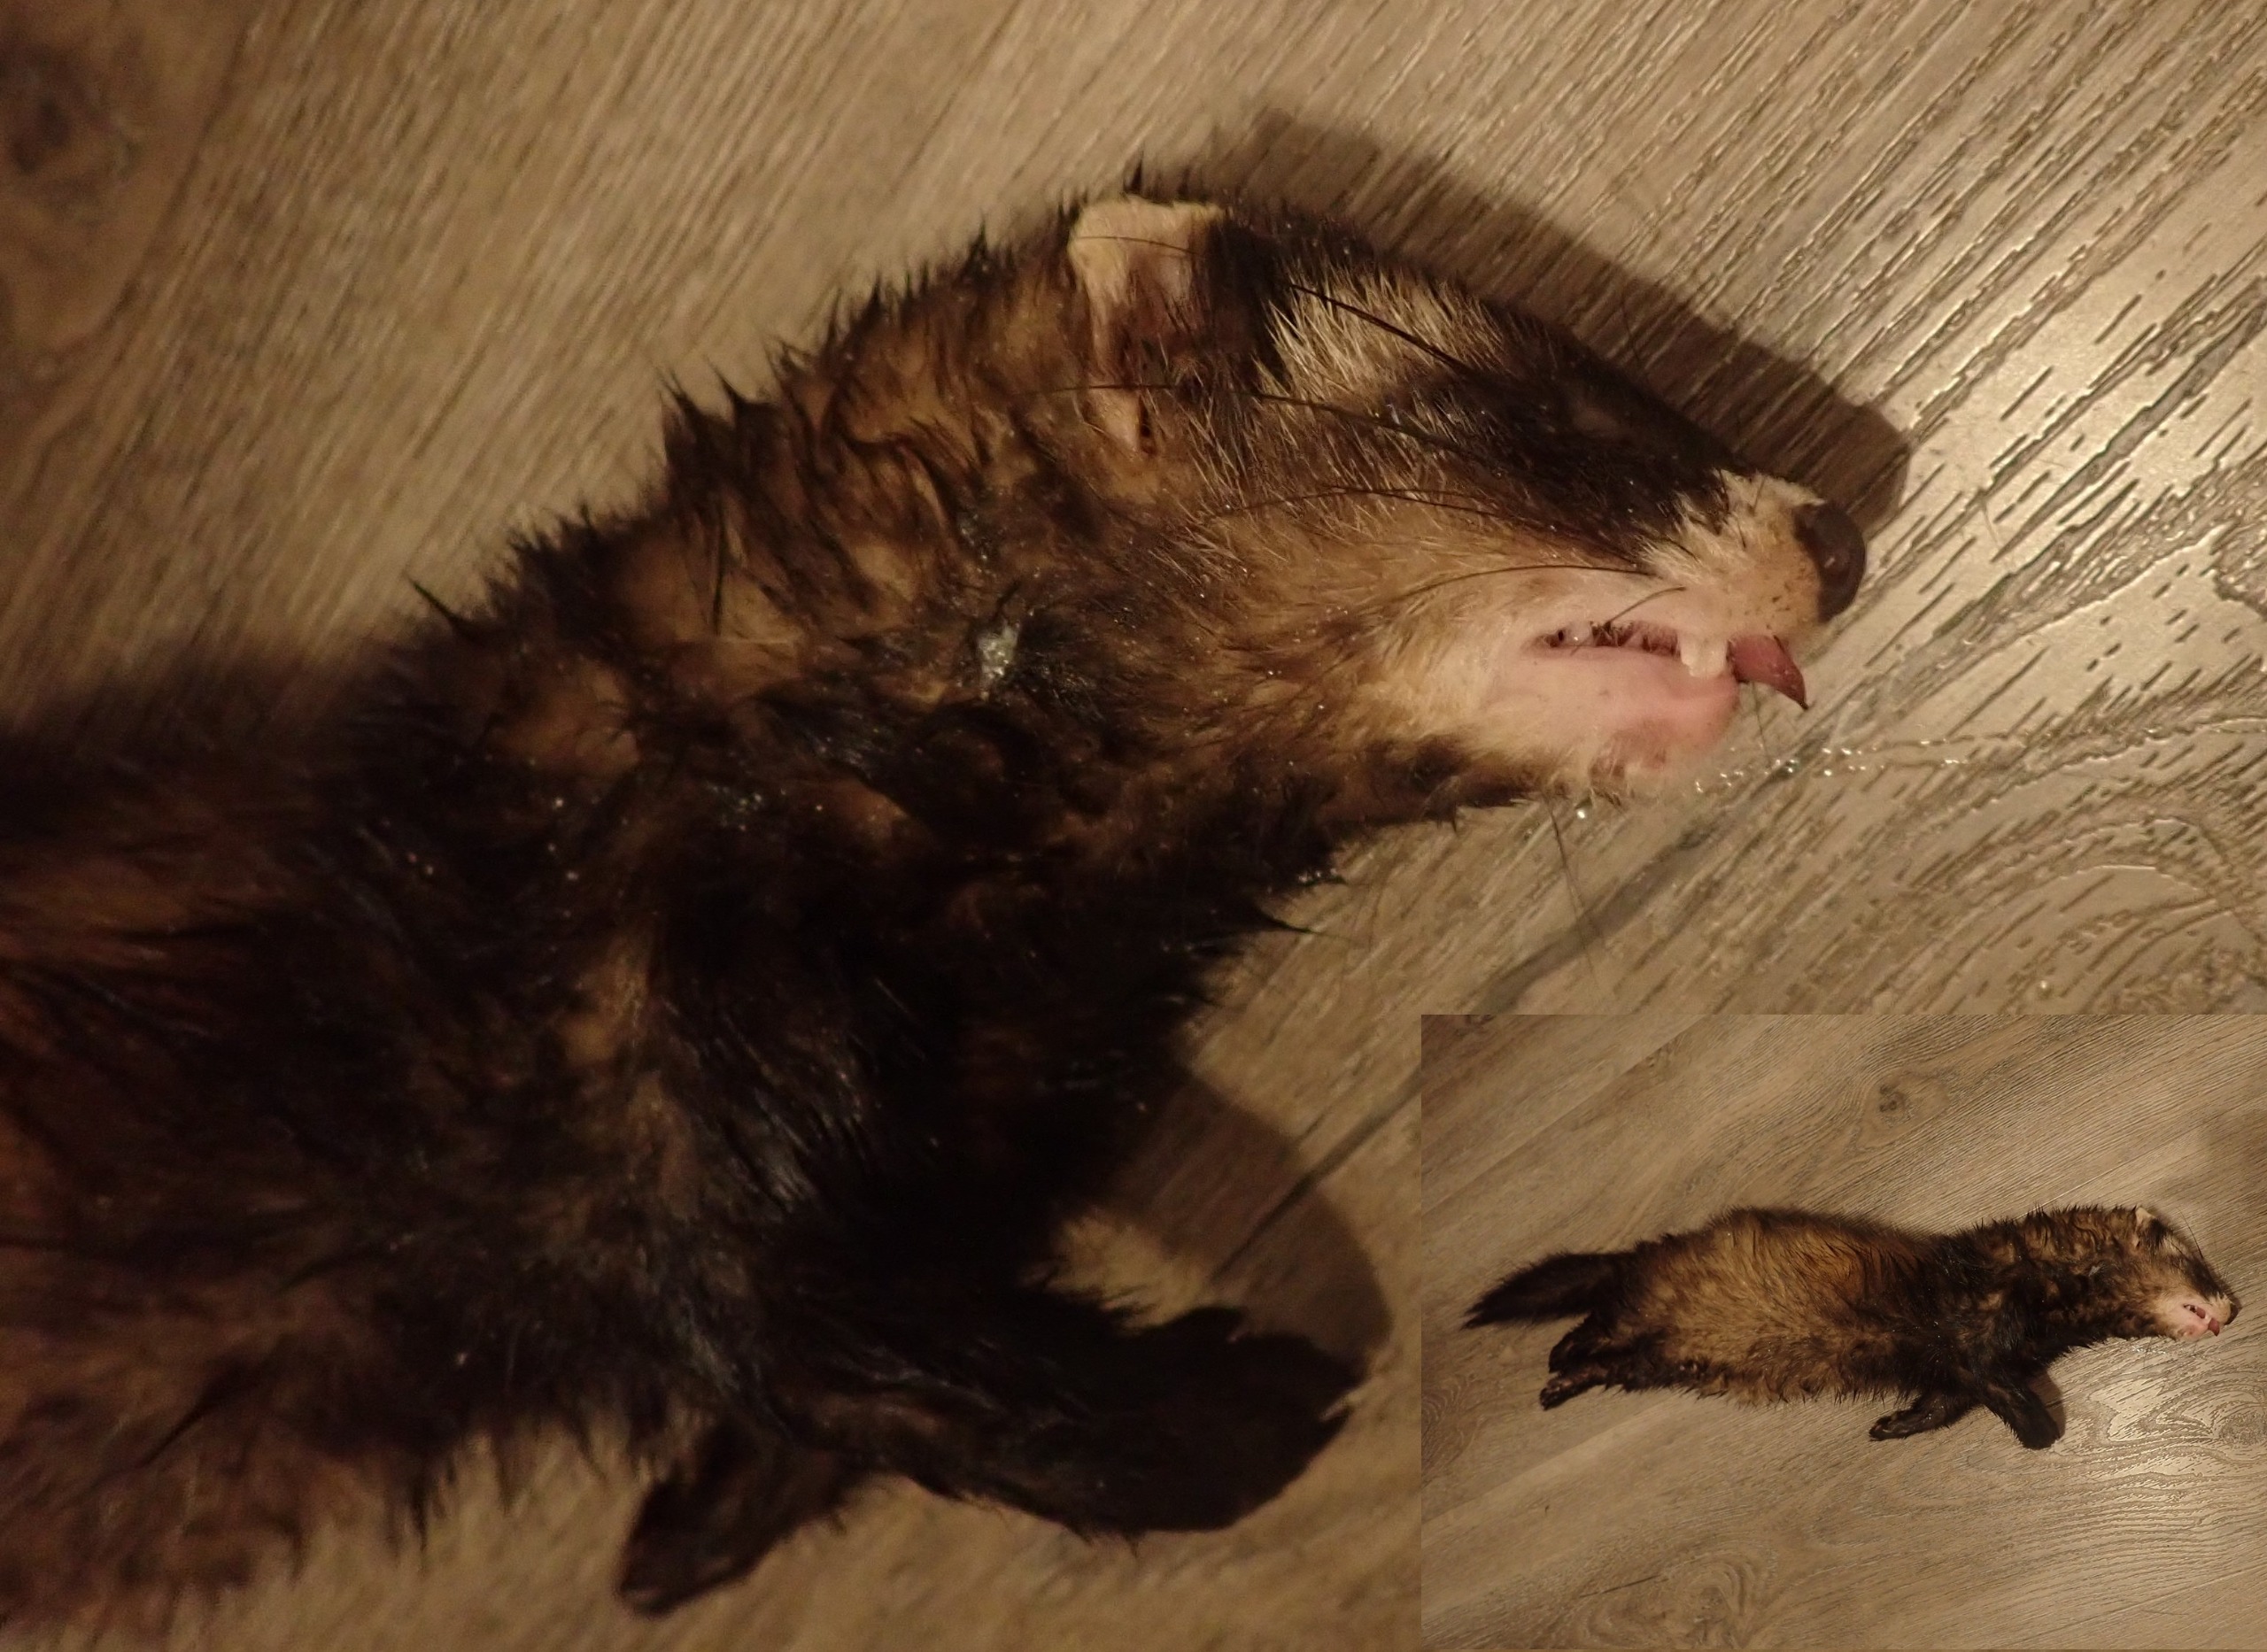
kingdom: Animalia
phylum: Chordata
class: Mammalia
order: Carnivora
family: Mustelidae
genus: Mustela
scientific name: Mustela putorius
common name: Ilder
